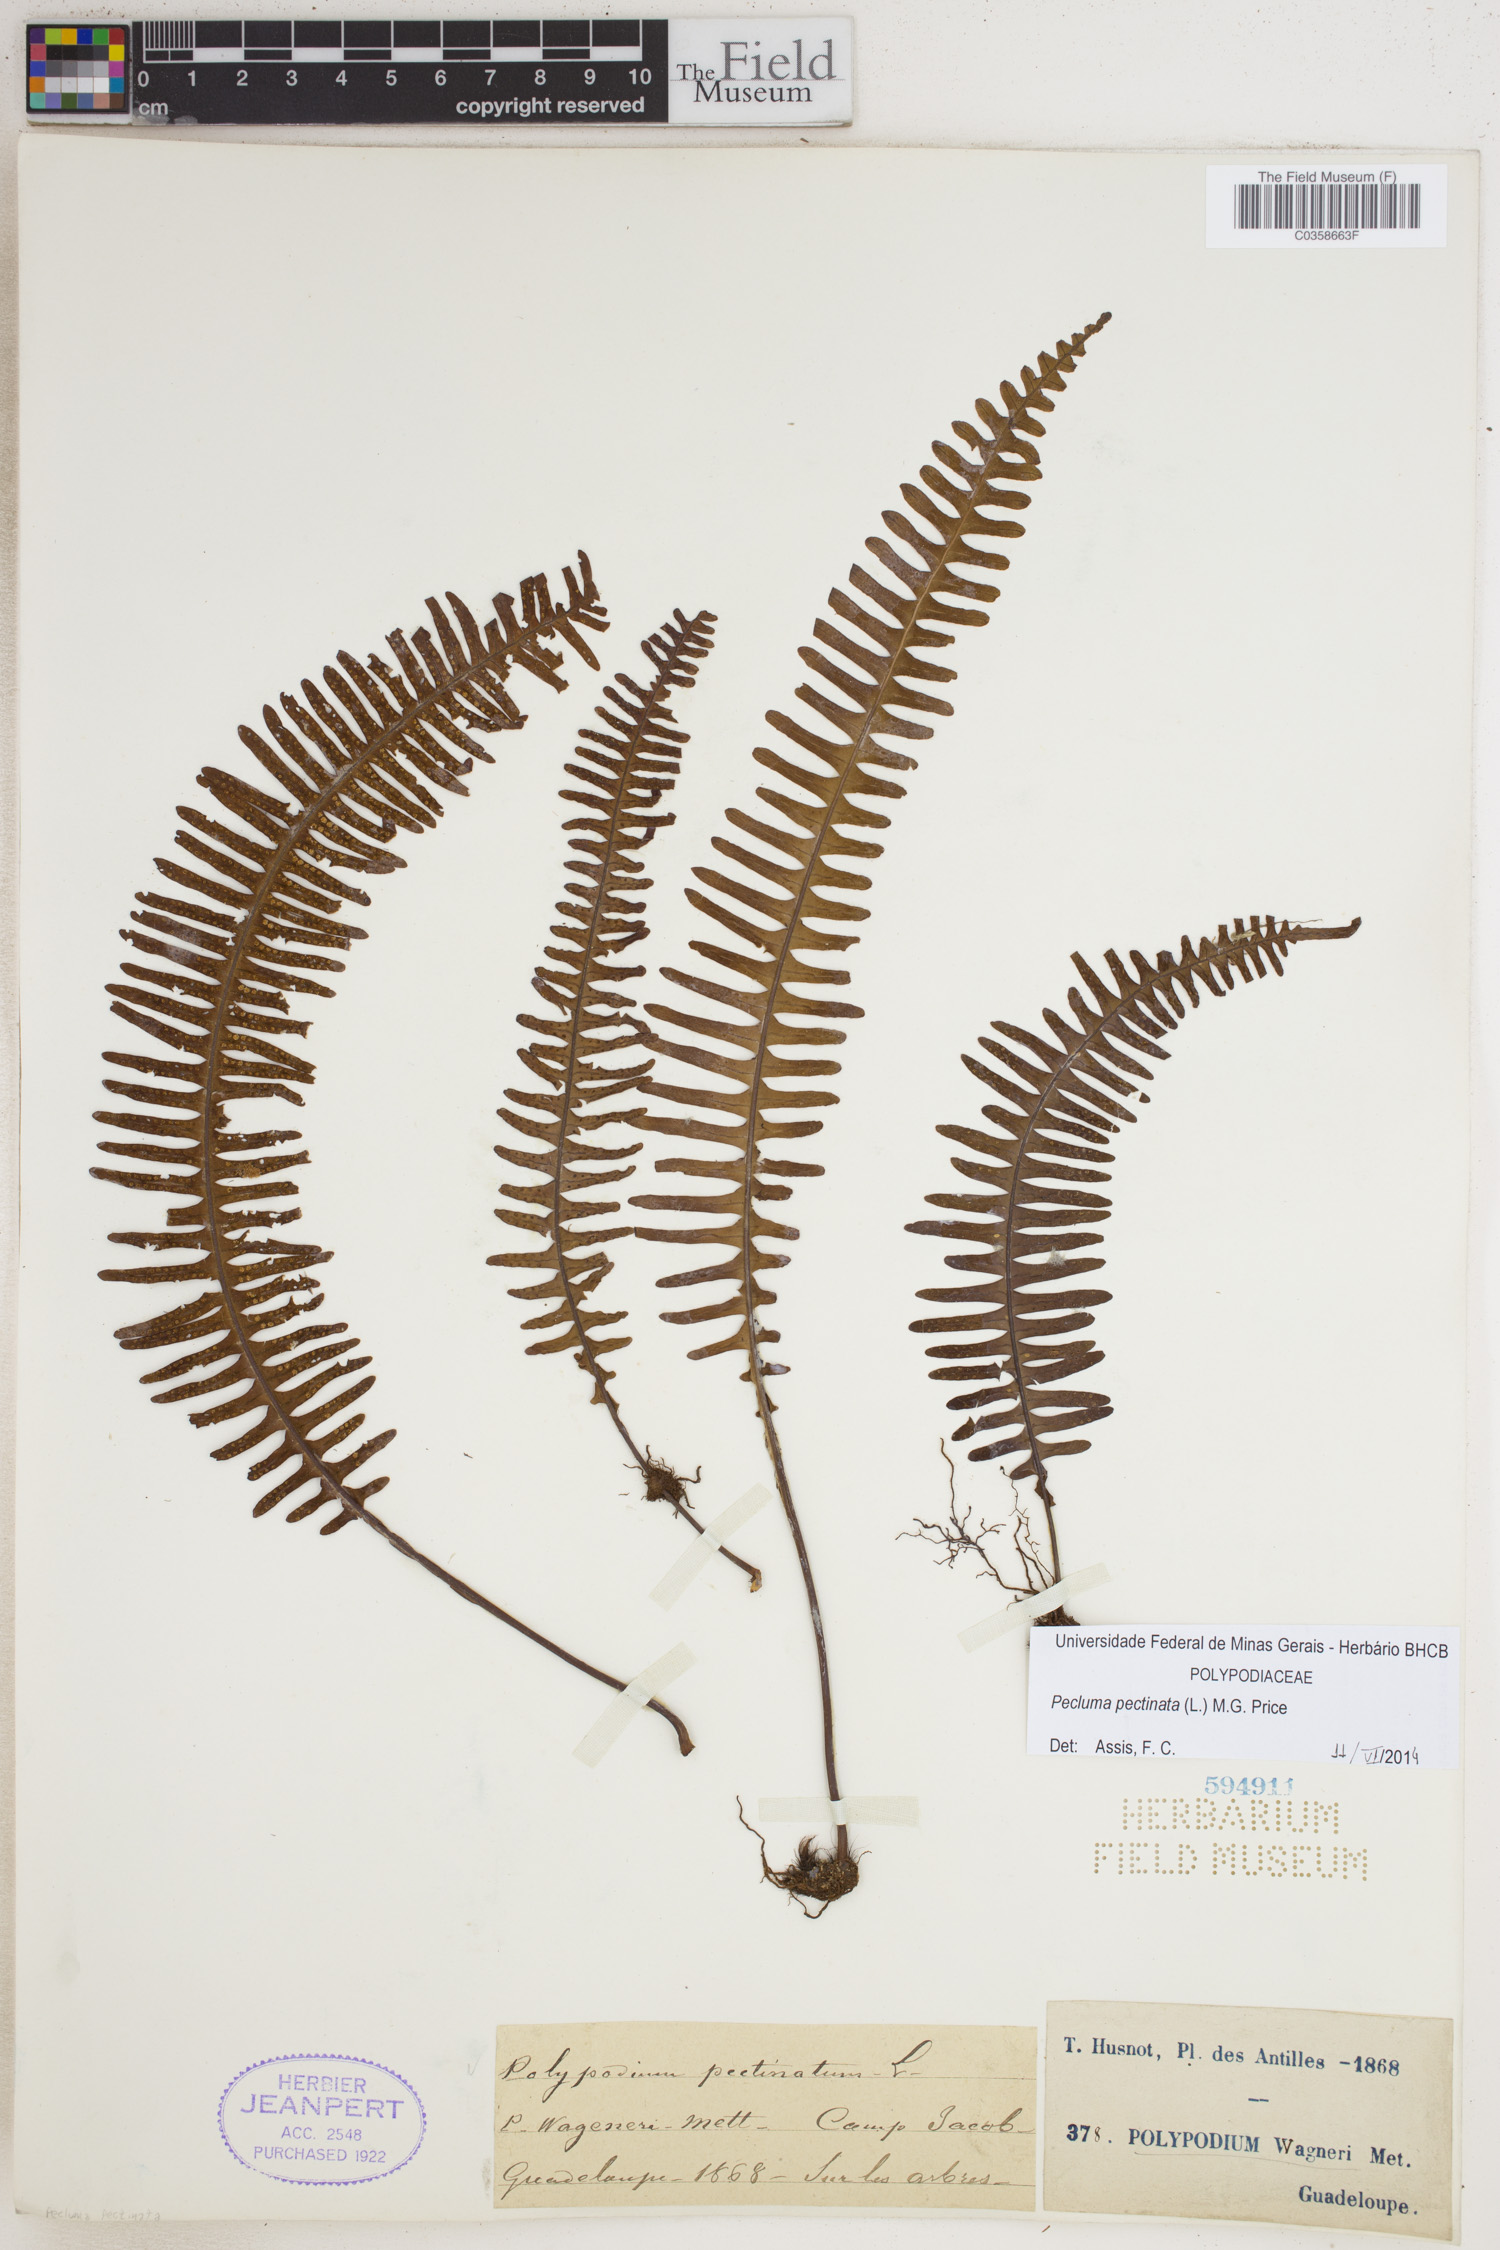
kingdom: Plantae
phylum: Tracheophyta
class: Polypodiopsida
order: Polypodiales
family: Polypodiaceae
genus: Pecluma
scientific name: Pecluma pectinata
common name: Msasa fern
